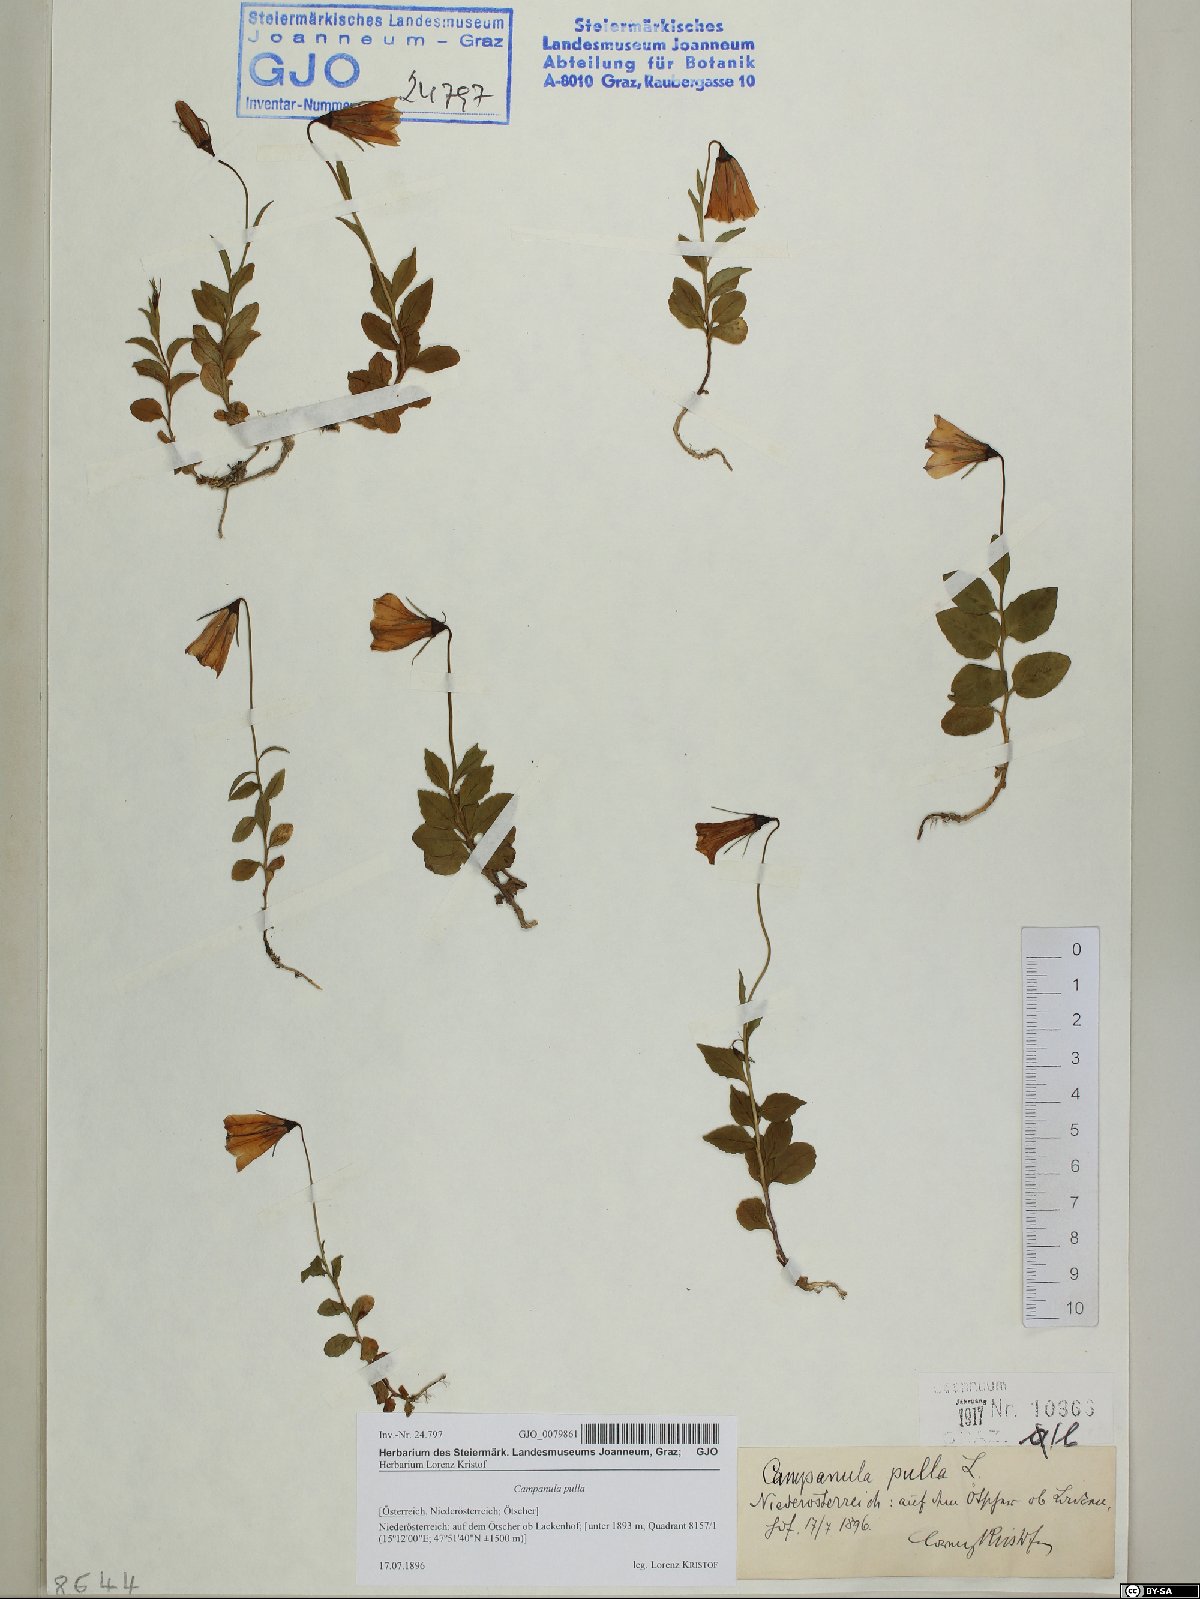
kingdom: Plantae
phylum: Tracheophyta
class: Magnoliopsida
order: Asterales
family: Campanulaceae
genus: Campanula
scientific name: Campanula pulla
